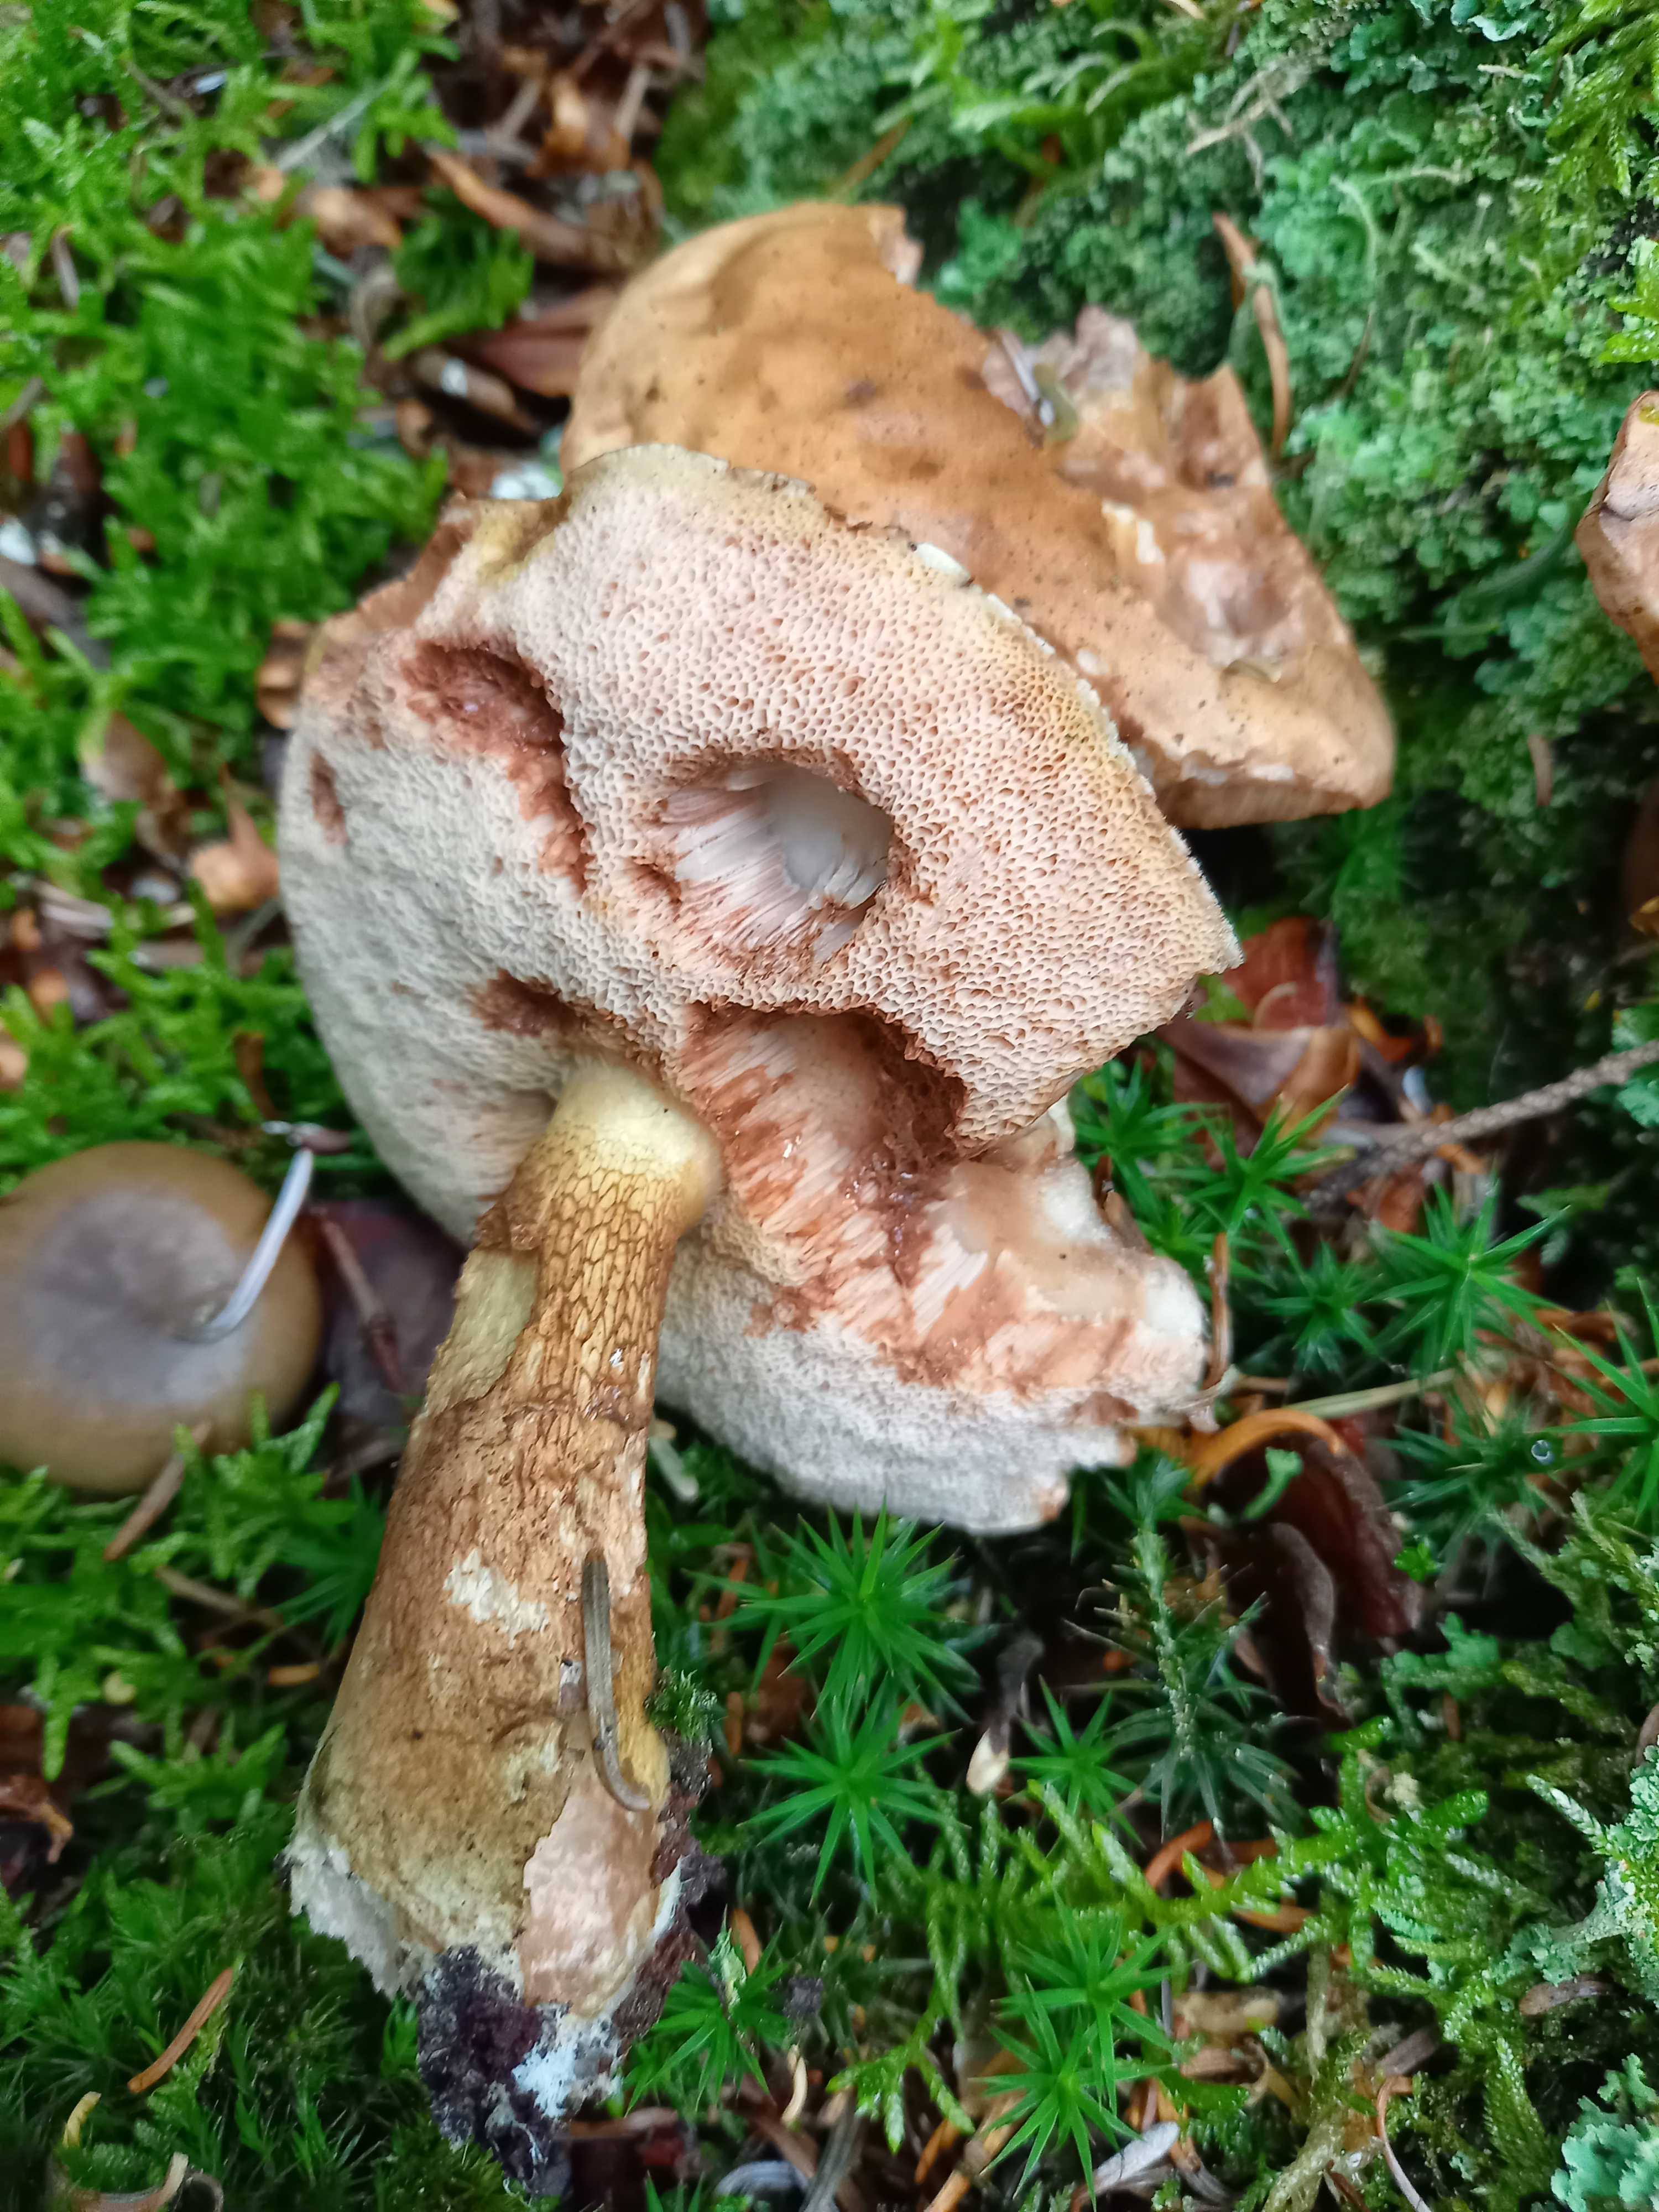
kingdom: Fungi
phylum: Basidiomycota
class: Agaricomycetes
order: Boletales
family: Boletaceae
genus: Tylopilus
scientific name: Tylopilus felleus
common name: galderørhat
